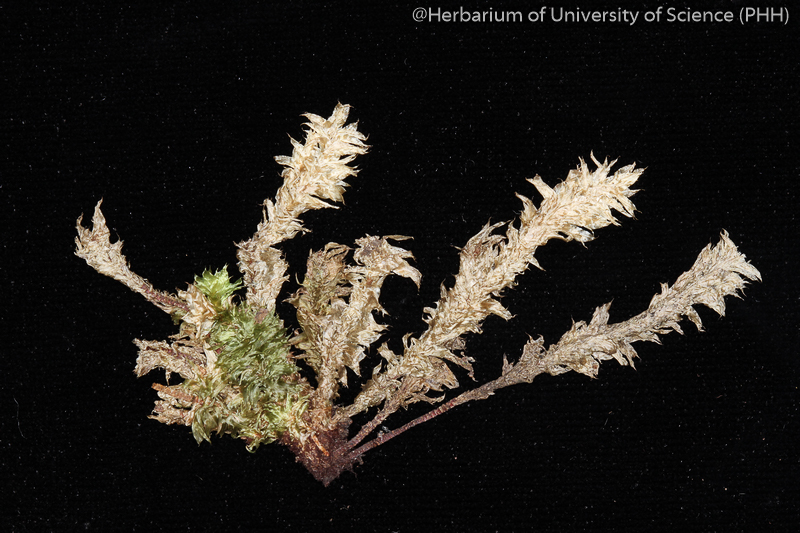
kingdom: Plantae
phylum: Bryophyta
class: Bryopsida
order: Ptychomniales
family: Ptychomniaceae
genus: Garovaglia
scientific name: Garovaglia crispata
